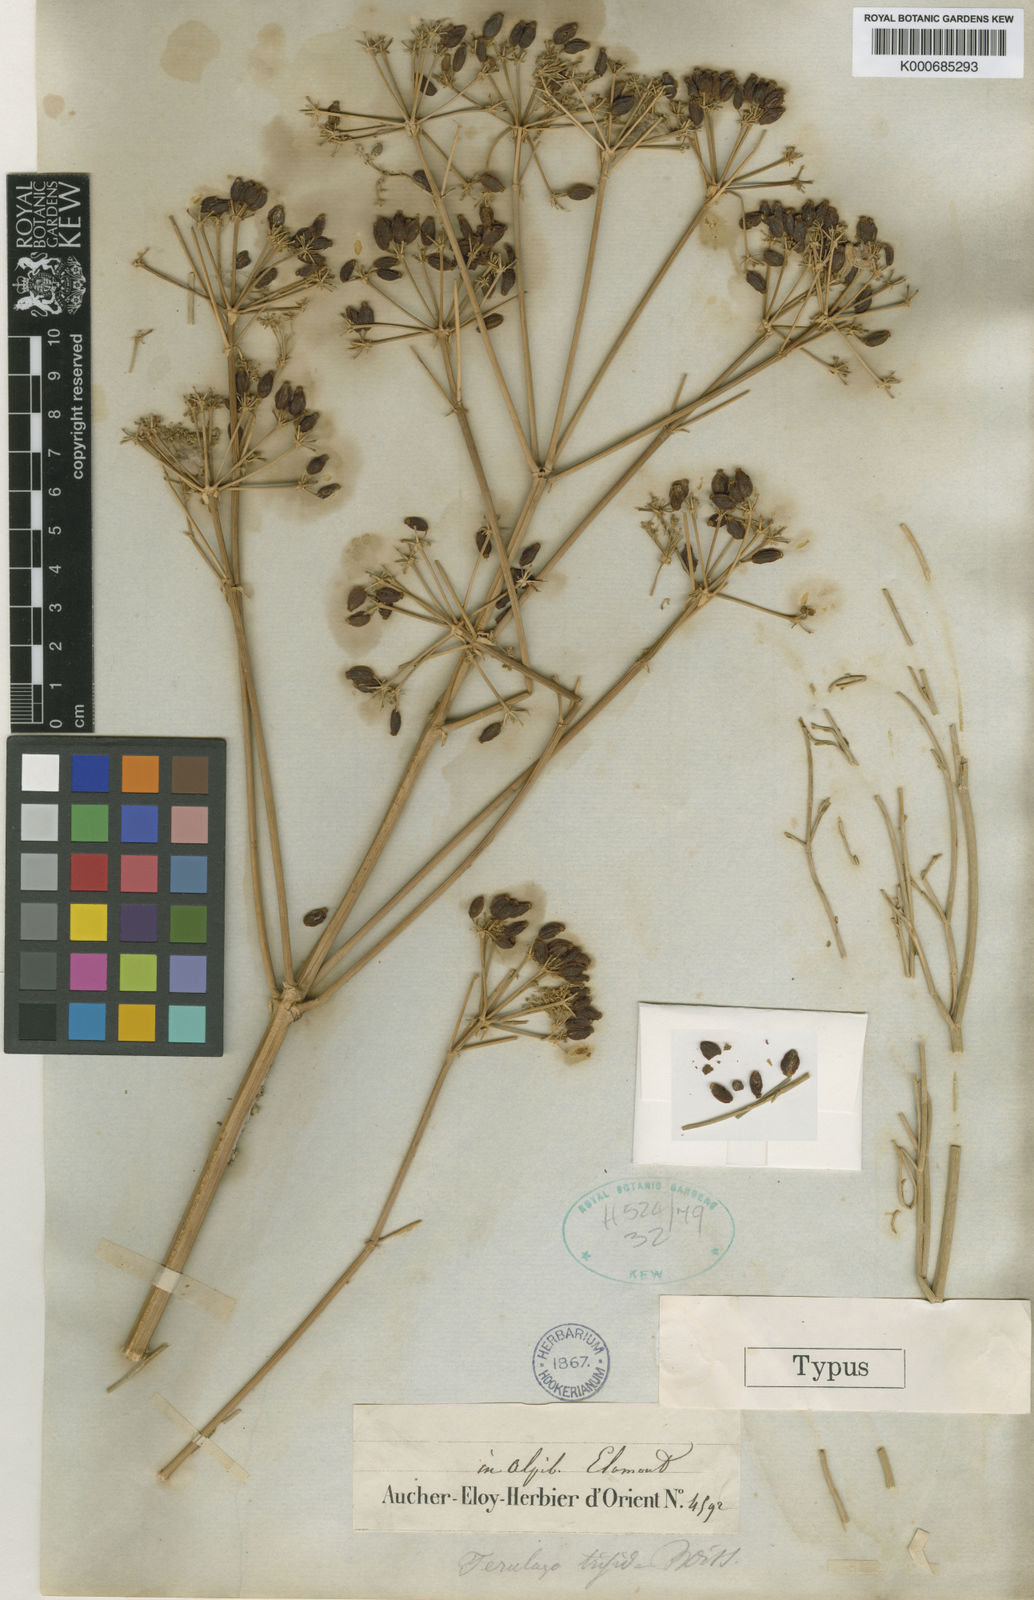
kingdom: Plantae
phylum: Tracheophyta
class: Magnoliopsida
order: Apiales
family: Apiaceae
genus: Ferulago
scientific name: Ferulago angulata
